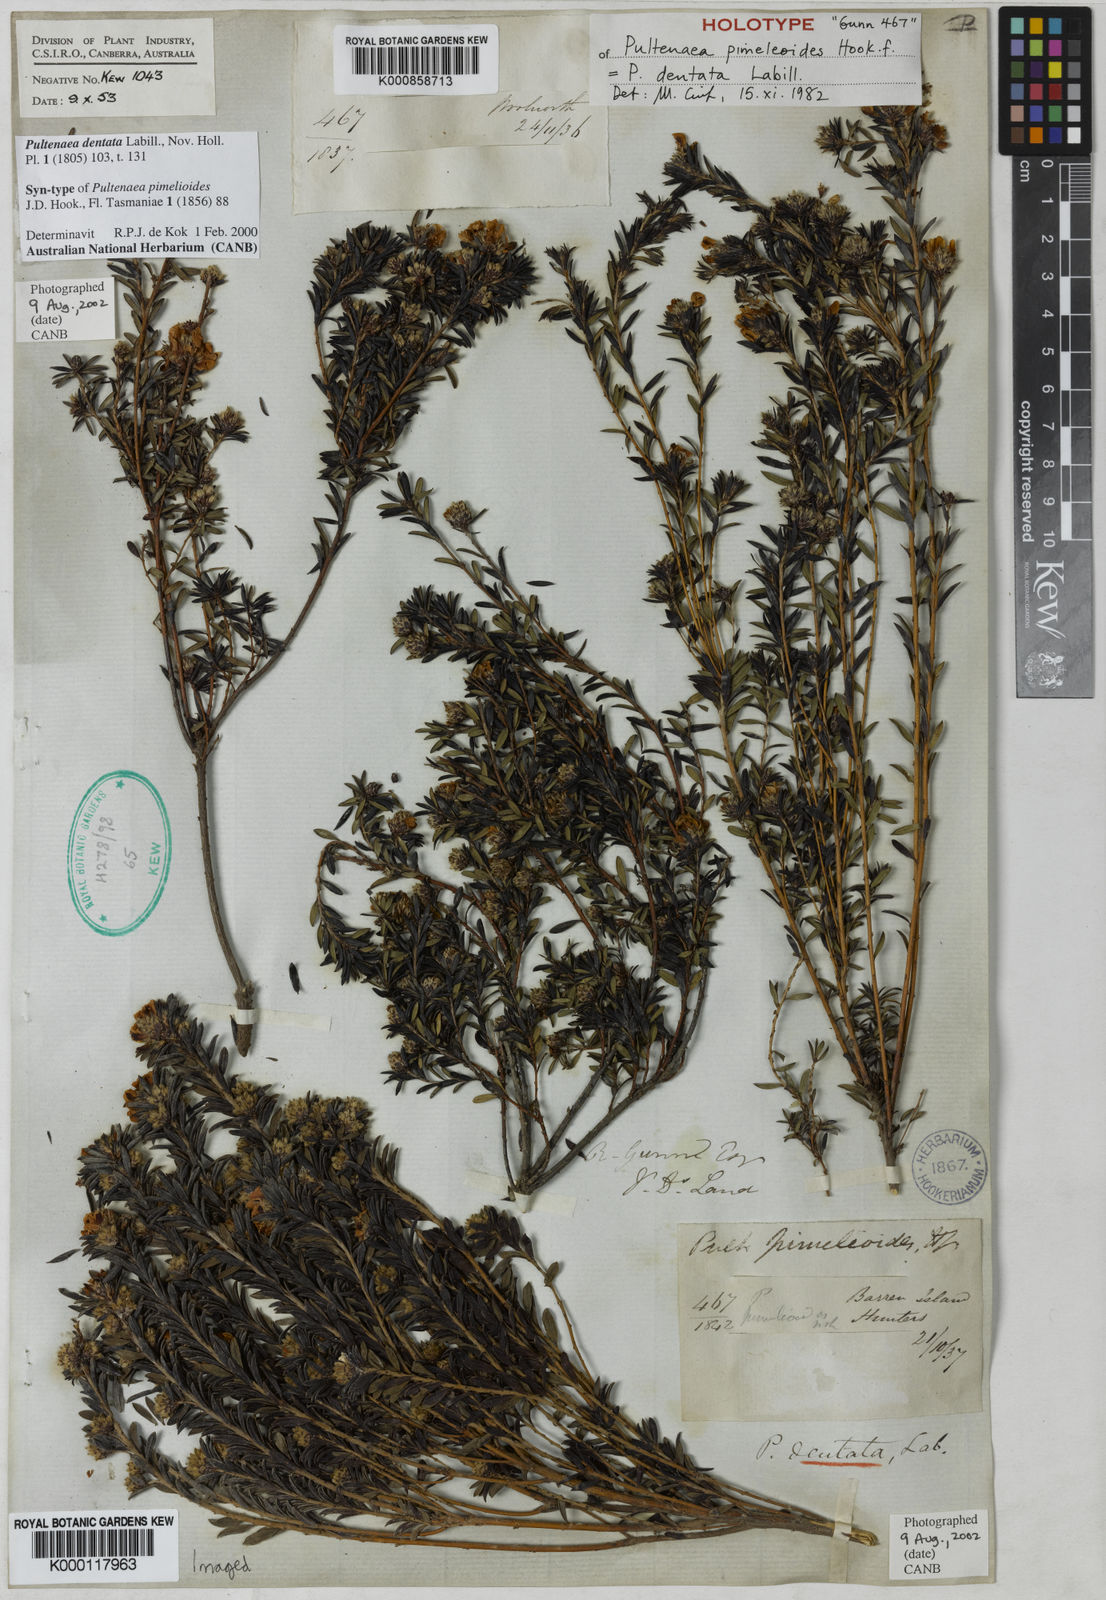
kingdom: Plantae
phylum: Tracheophyta
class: Magnoliopsida
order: Fabales
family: Fabaceae
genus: Pultenaea
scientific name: Pultenaea dentata
